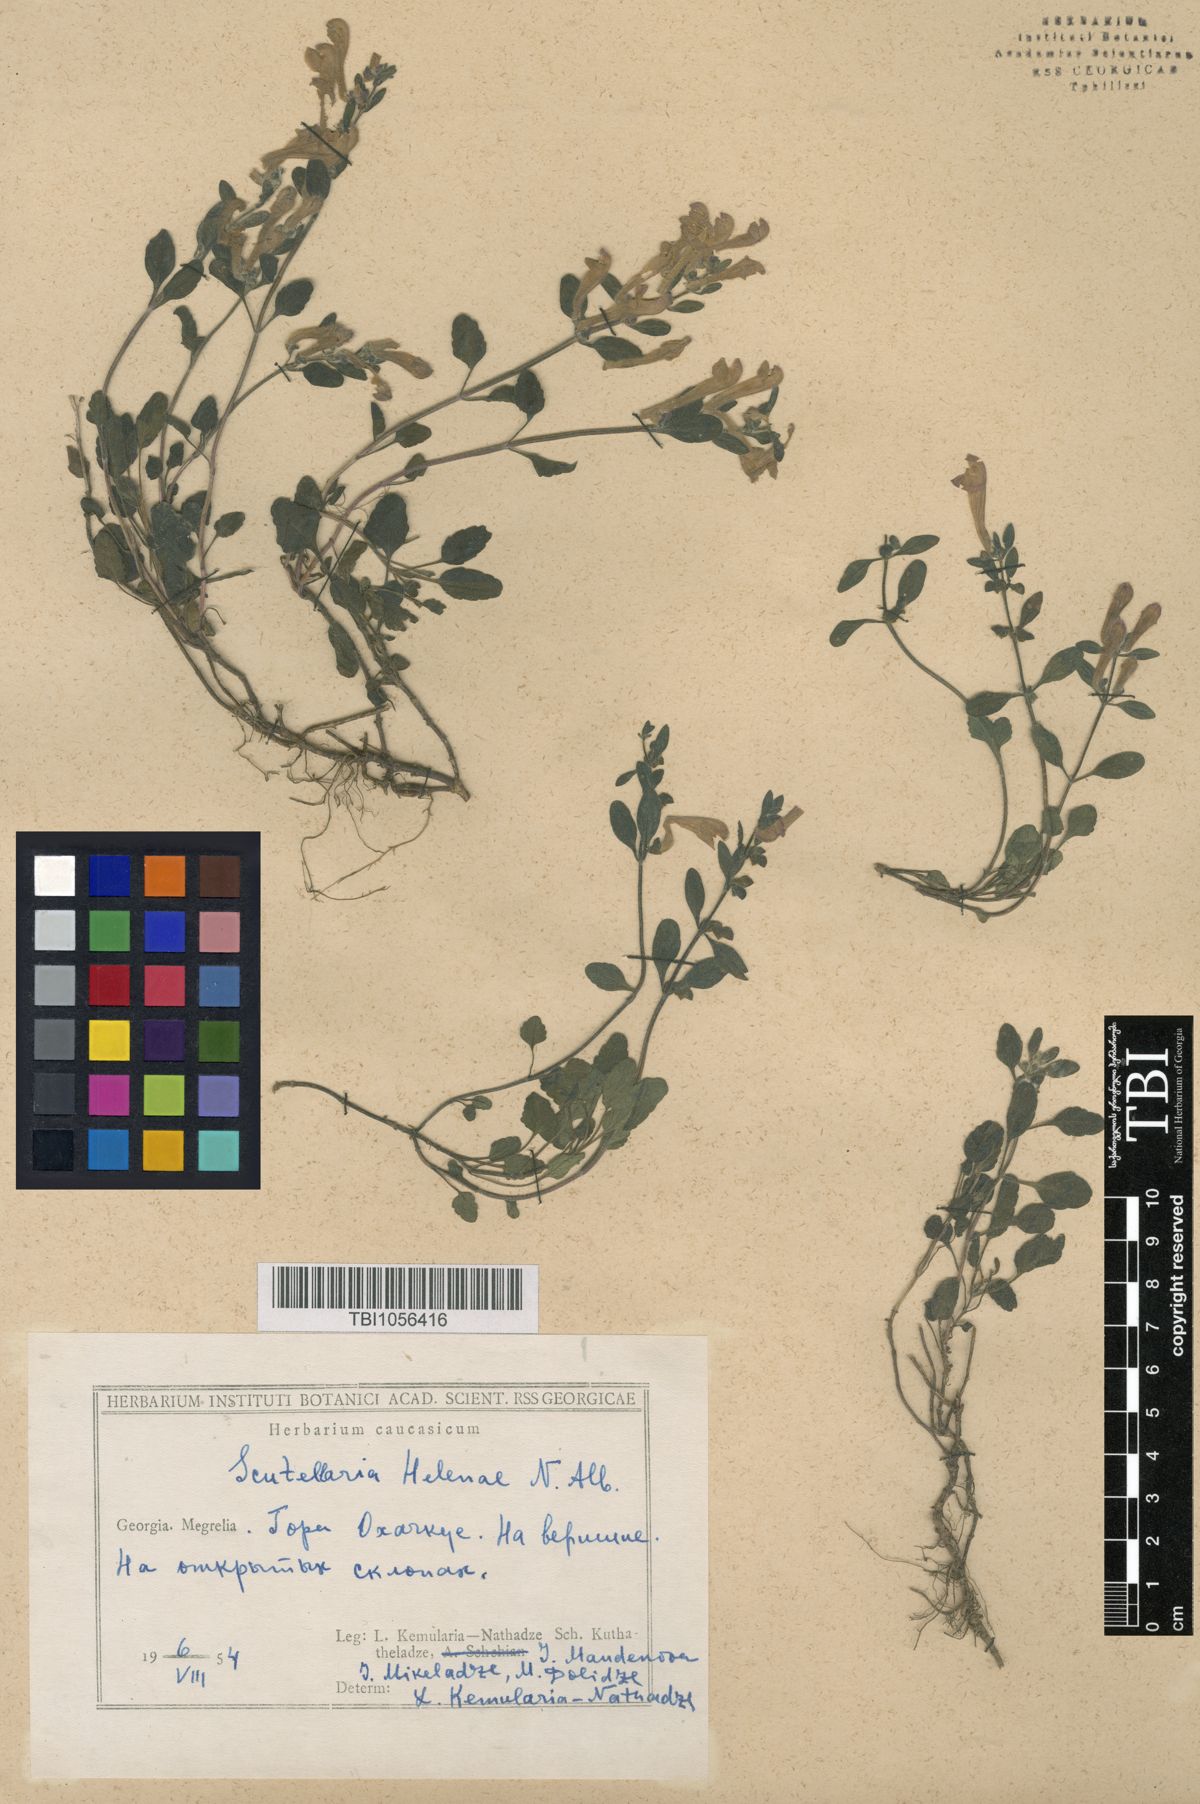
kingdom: Plantae
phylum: Tracheophyta
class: Magnoliopsida
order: Lamiales
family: Lamiaceae
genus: Scutellaria
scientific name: Scutellaria helenae
